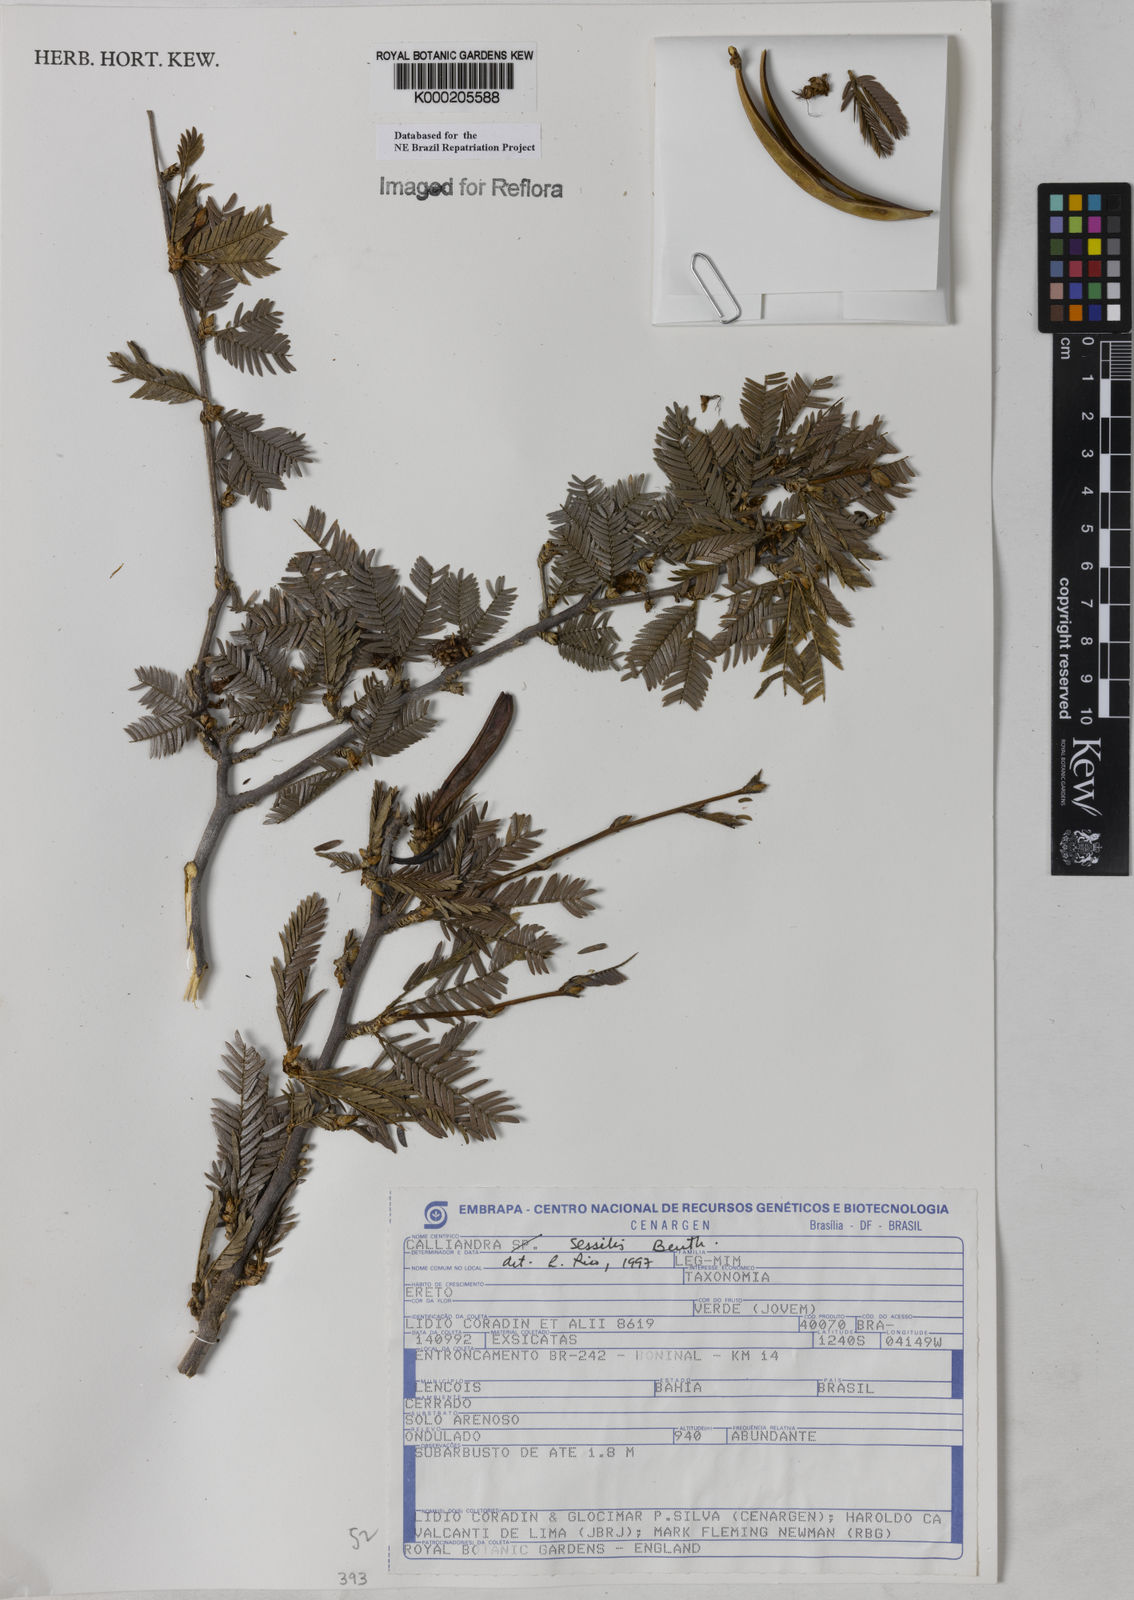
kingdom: Plantae
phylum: Tracheophyta
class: Magnoliopsida
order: Fabales
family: Fabaceae
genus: Calliandra
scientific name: Calliandra sessilis
